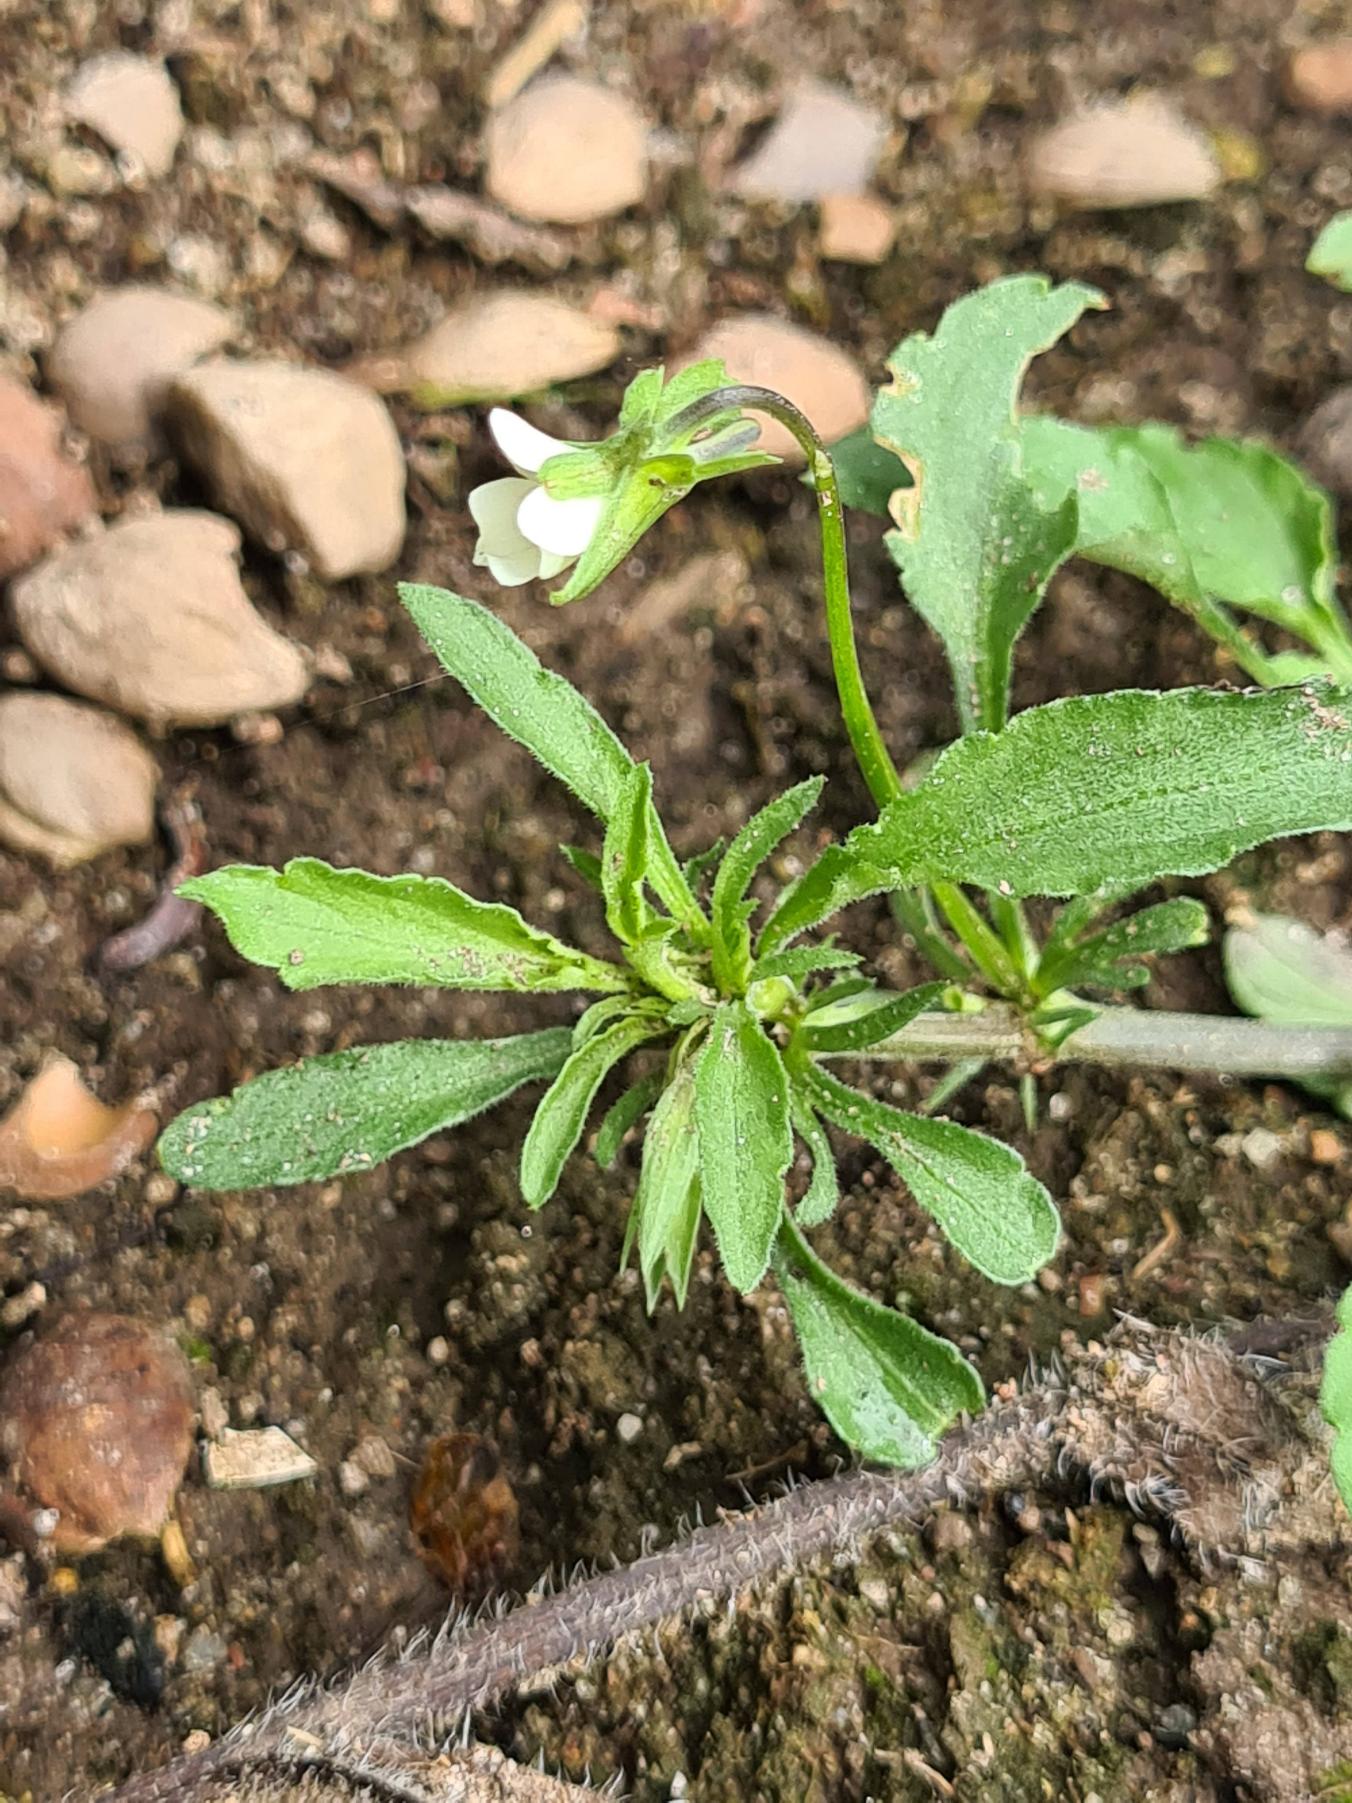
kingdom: Plantae
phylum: Tracheophyta
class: Magnoliopsida
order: Malpighiales
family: Violaceae
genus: Viola
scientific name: Viola arvensis
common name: Ager-stedmoderblomst
